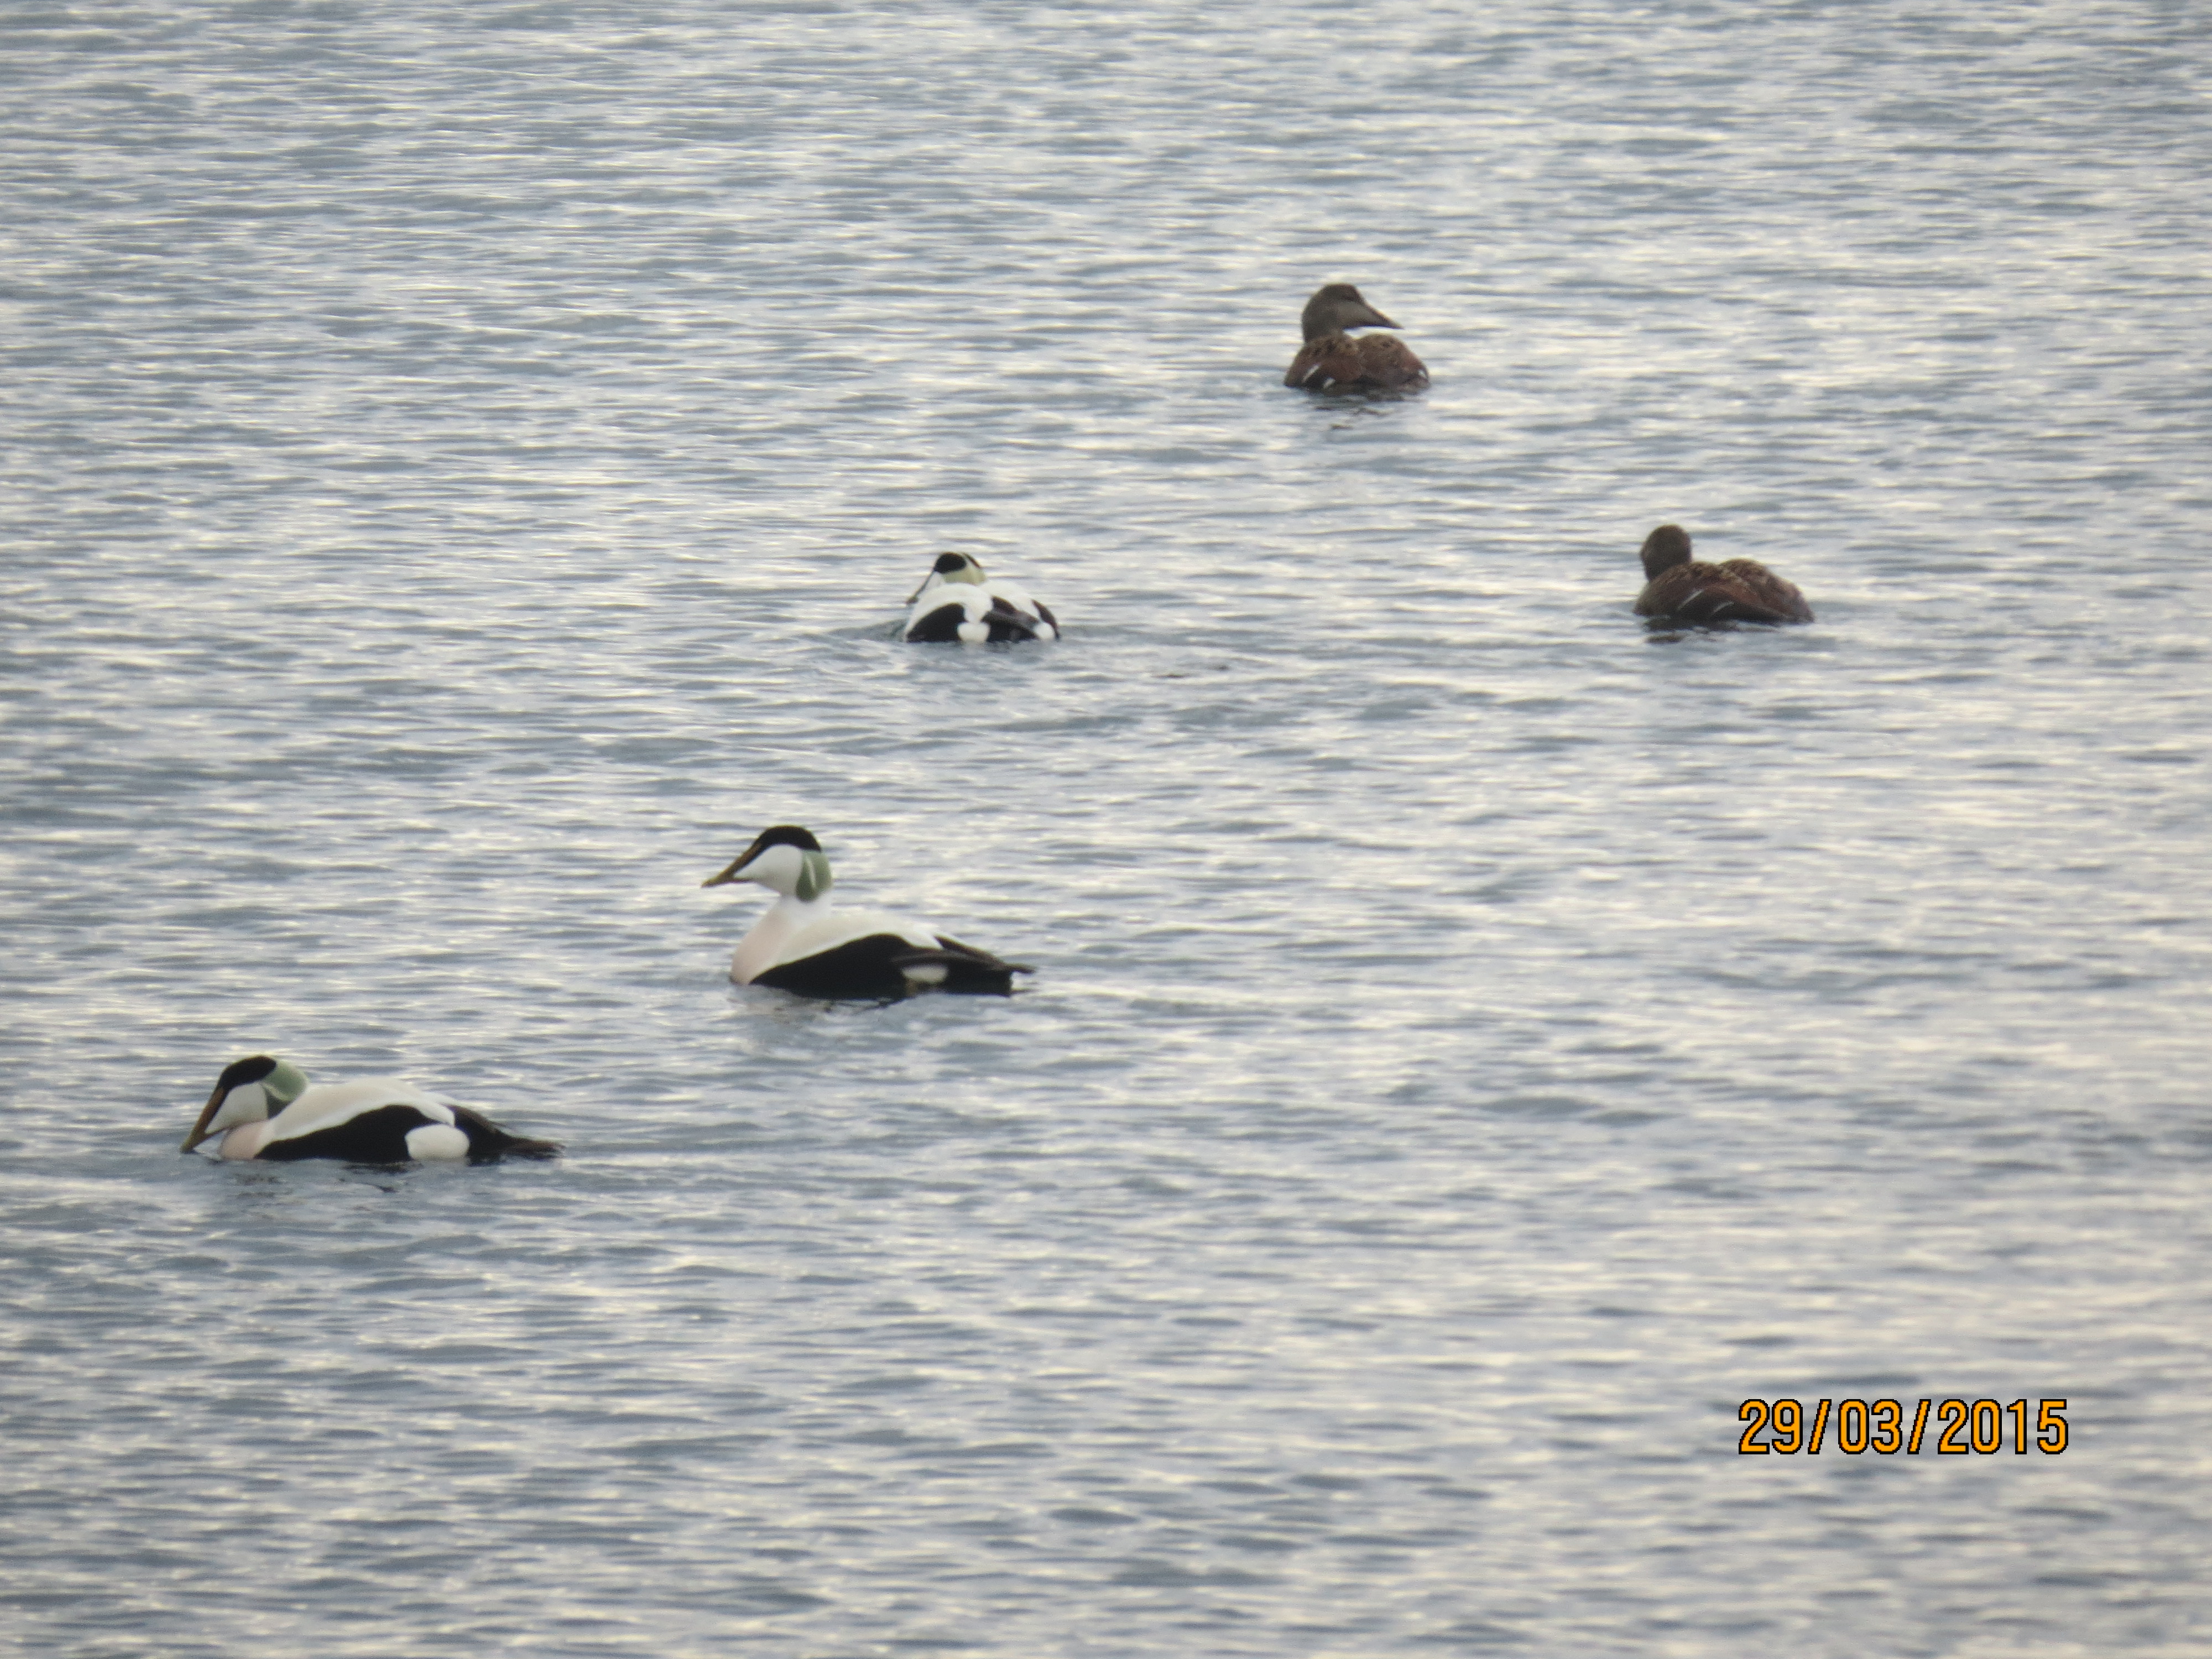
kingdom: Animalia
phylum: Chordata
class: Aves
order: Anseriformes
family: Anatidae
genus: Somateria
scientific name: Somateria mollissima
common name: Common eider
